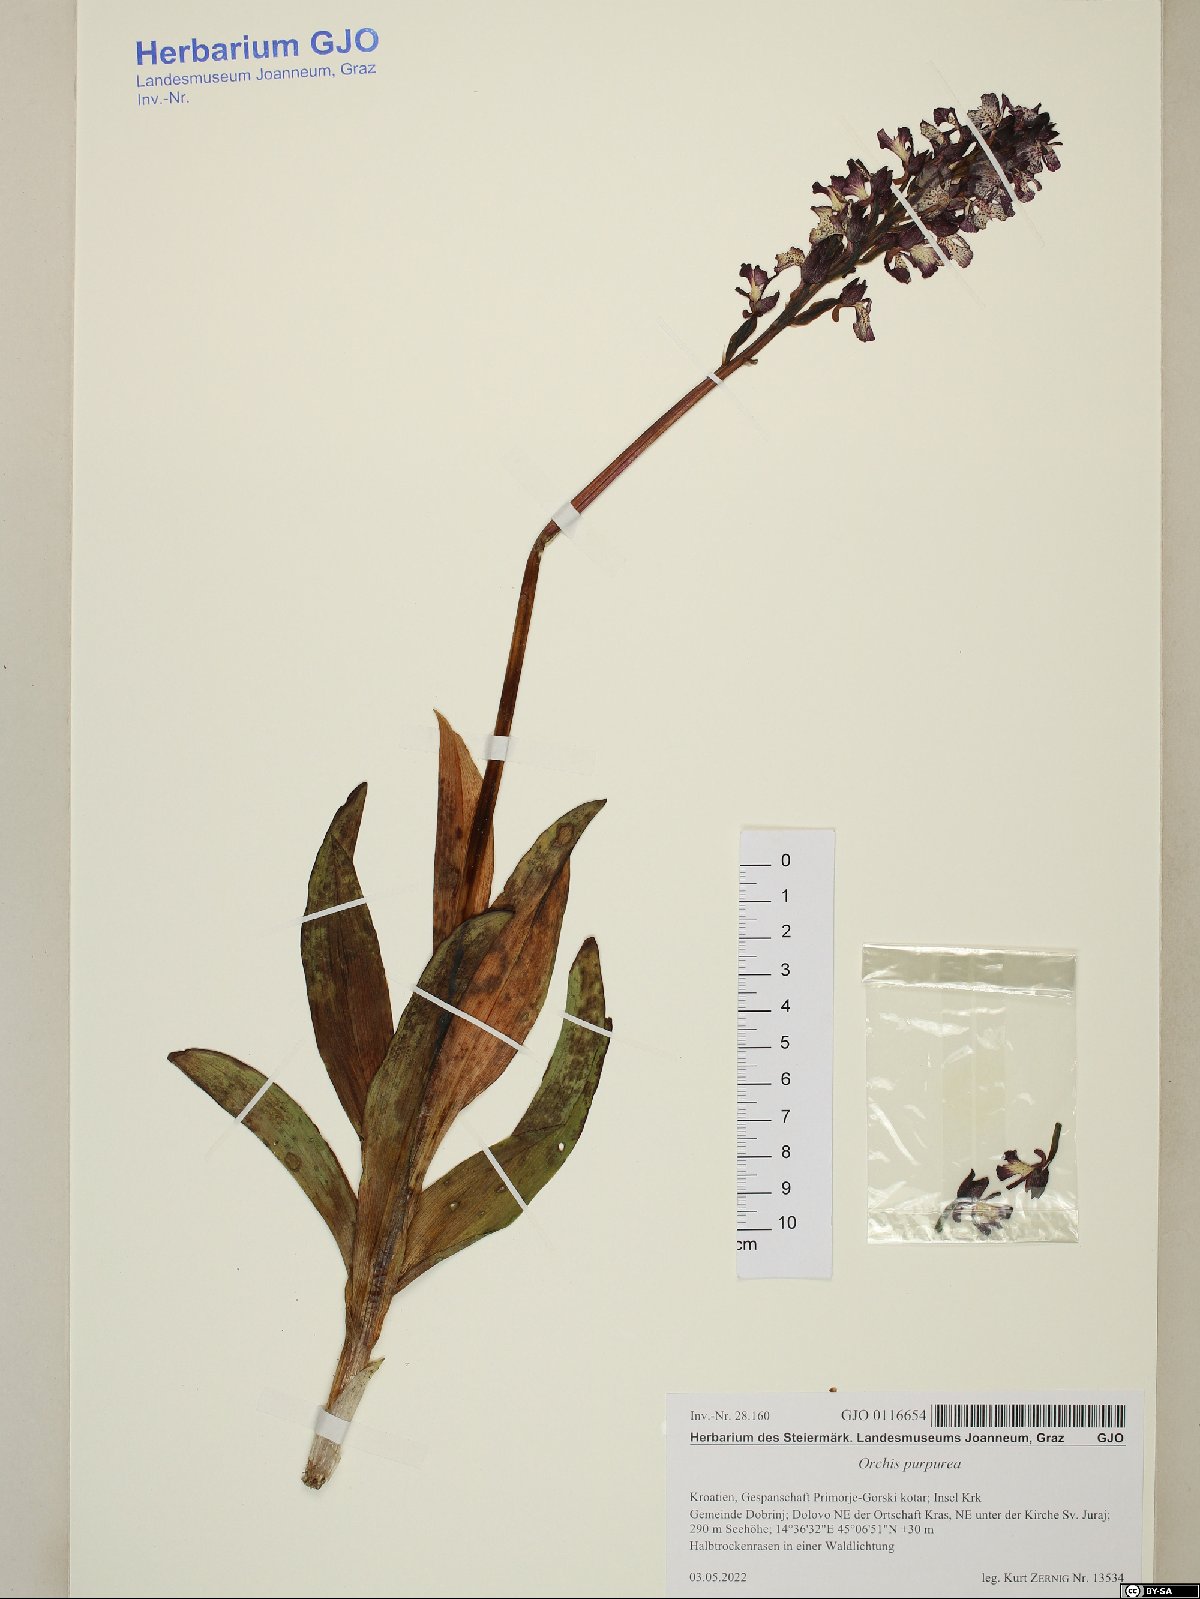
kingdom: Plantae
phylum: Tracheophyta
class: Liliopsida
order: Asparagales
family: Orchidaceae
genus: Orchis
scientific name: Orchis purpurea
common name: Lady orchid
